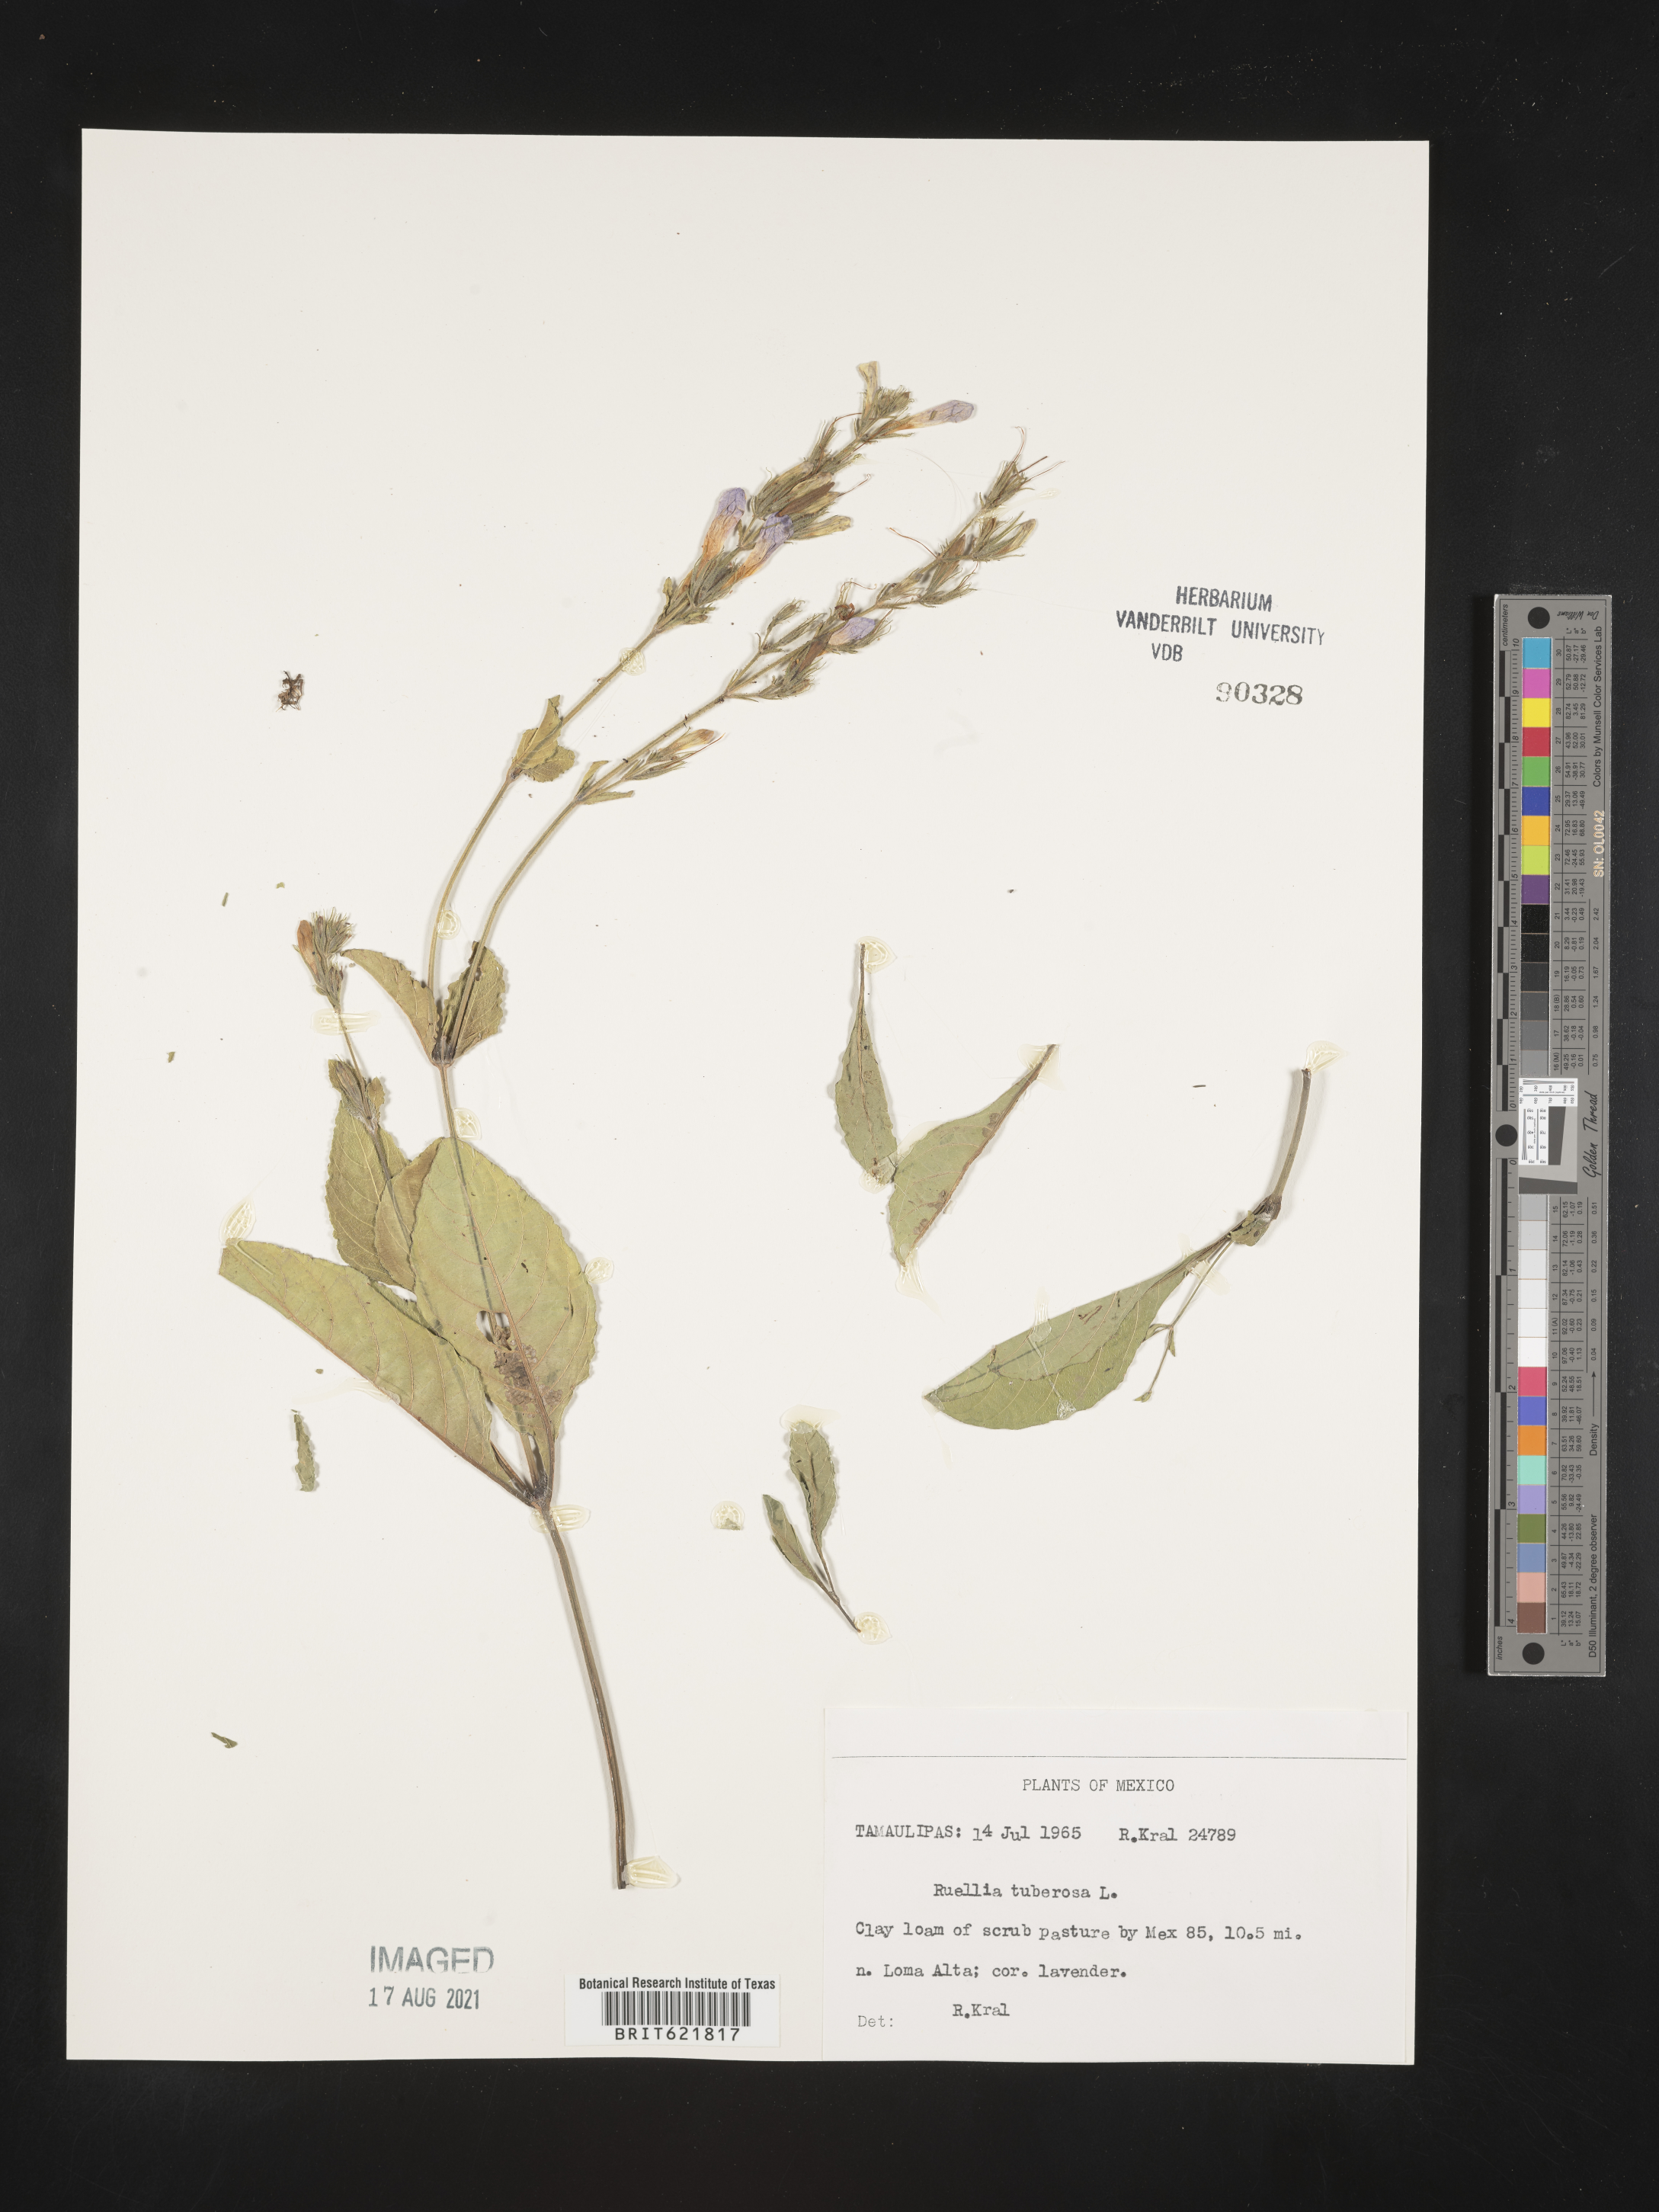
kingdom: Plantae
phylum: Tracheophyta
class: Magnoliopsida
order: Lamiales
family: Acanthaceae
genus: Ruellia
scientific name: Ruellia
